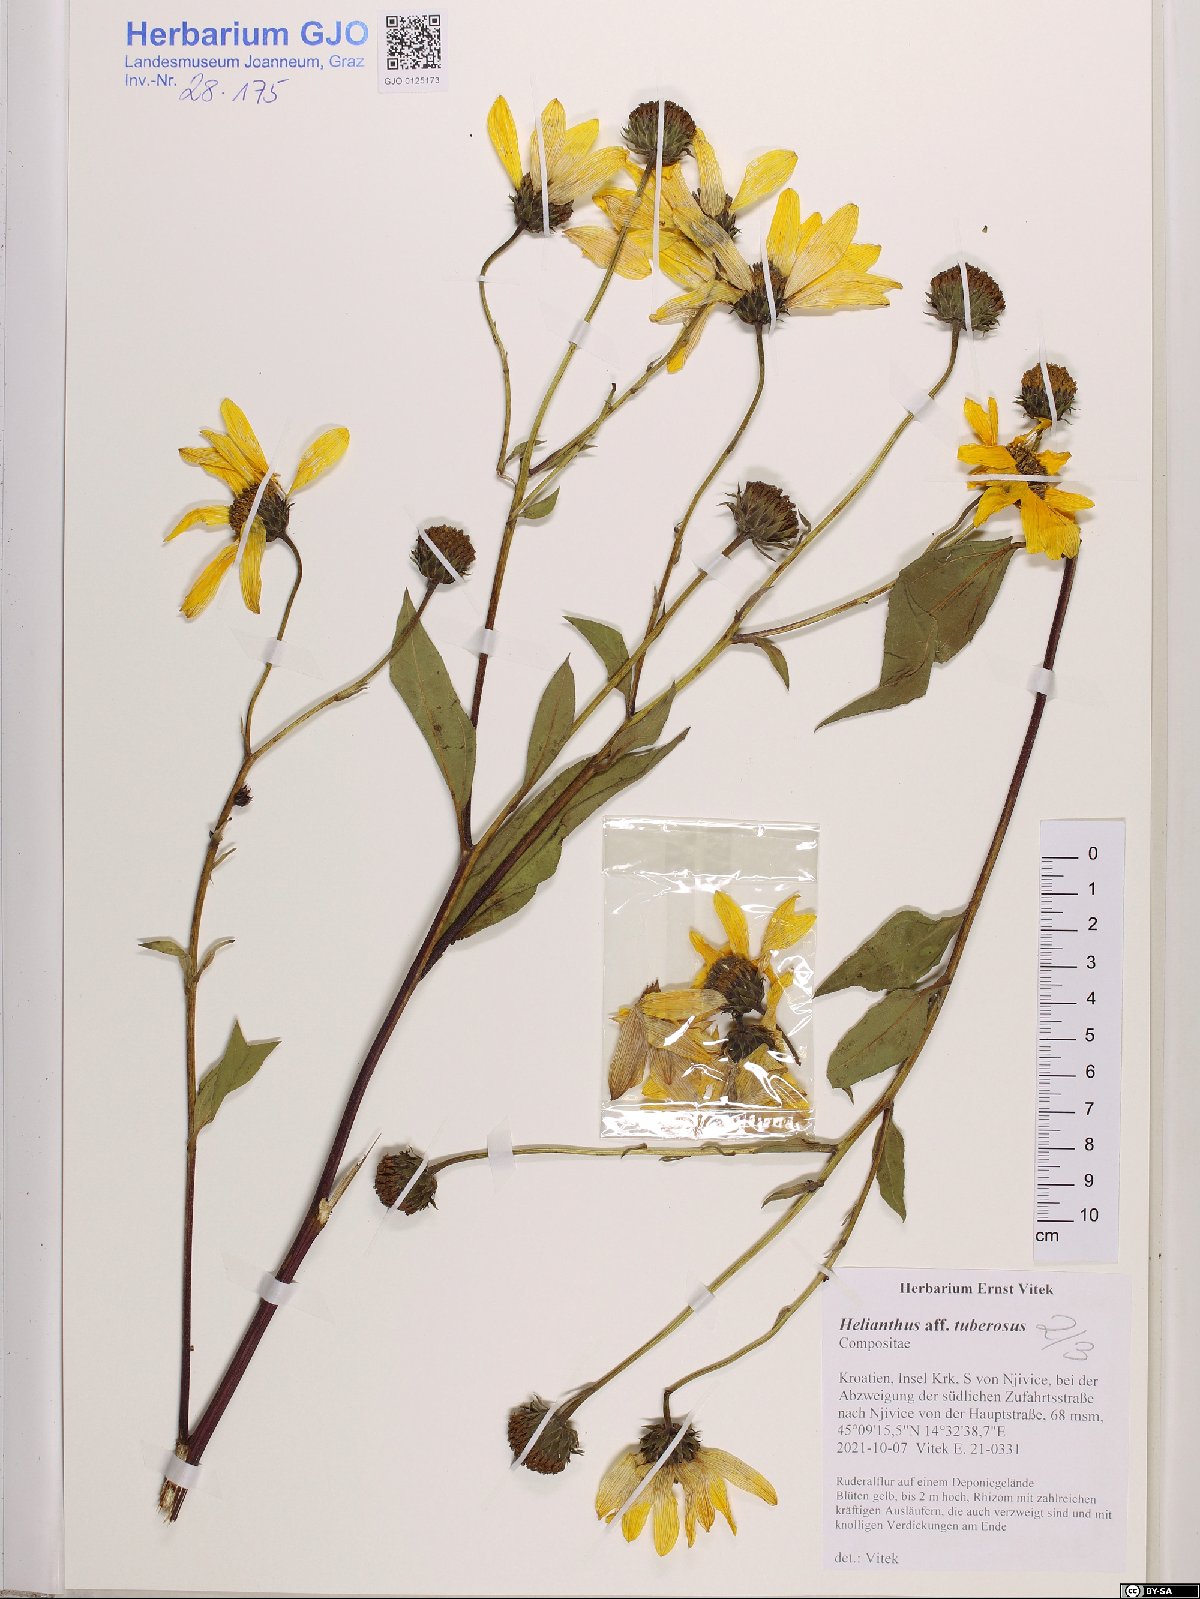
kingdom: Plantae
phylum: Tracheophyta
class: Magnoliopsida
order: Asterales
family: Asteraceae
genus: Helianthus
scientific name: Helianthus tuberosus
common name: Jerusalem artichoke
